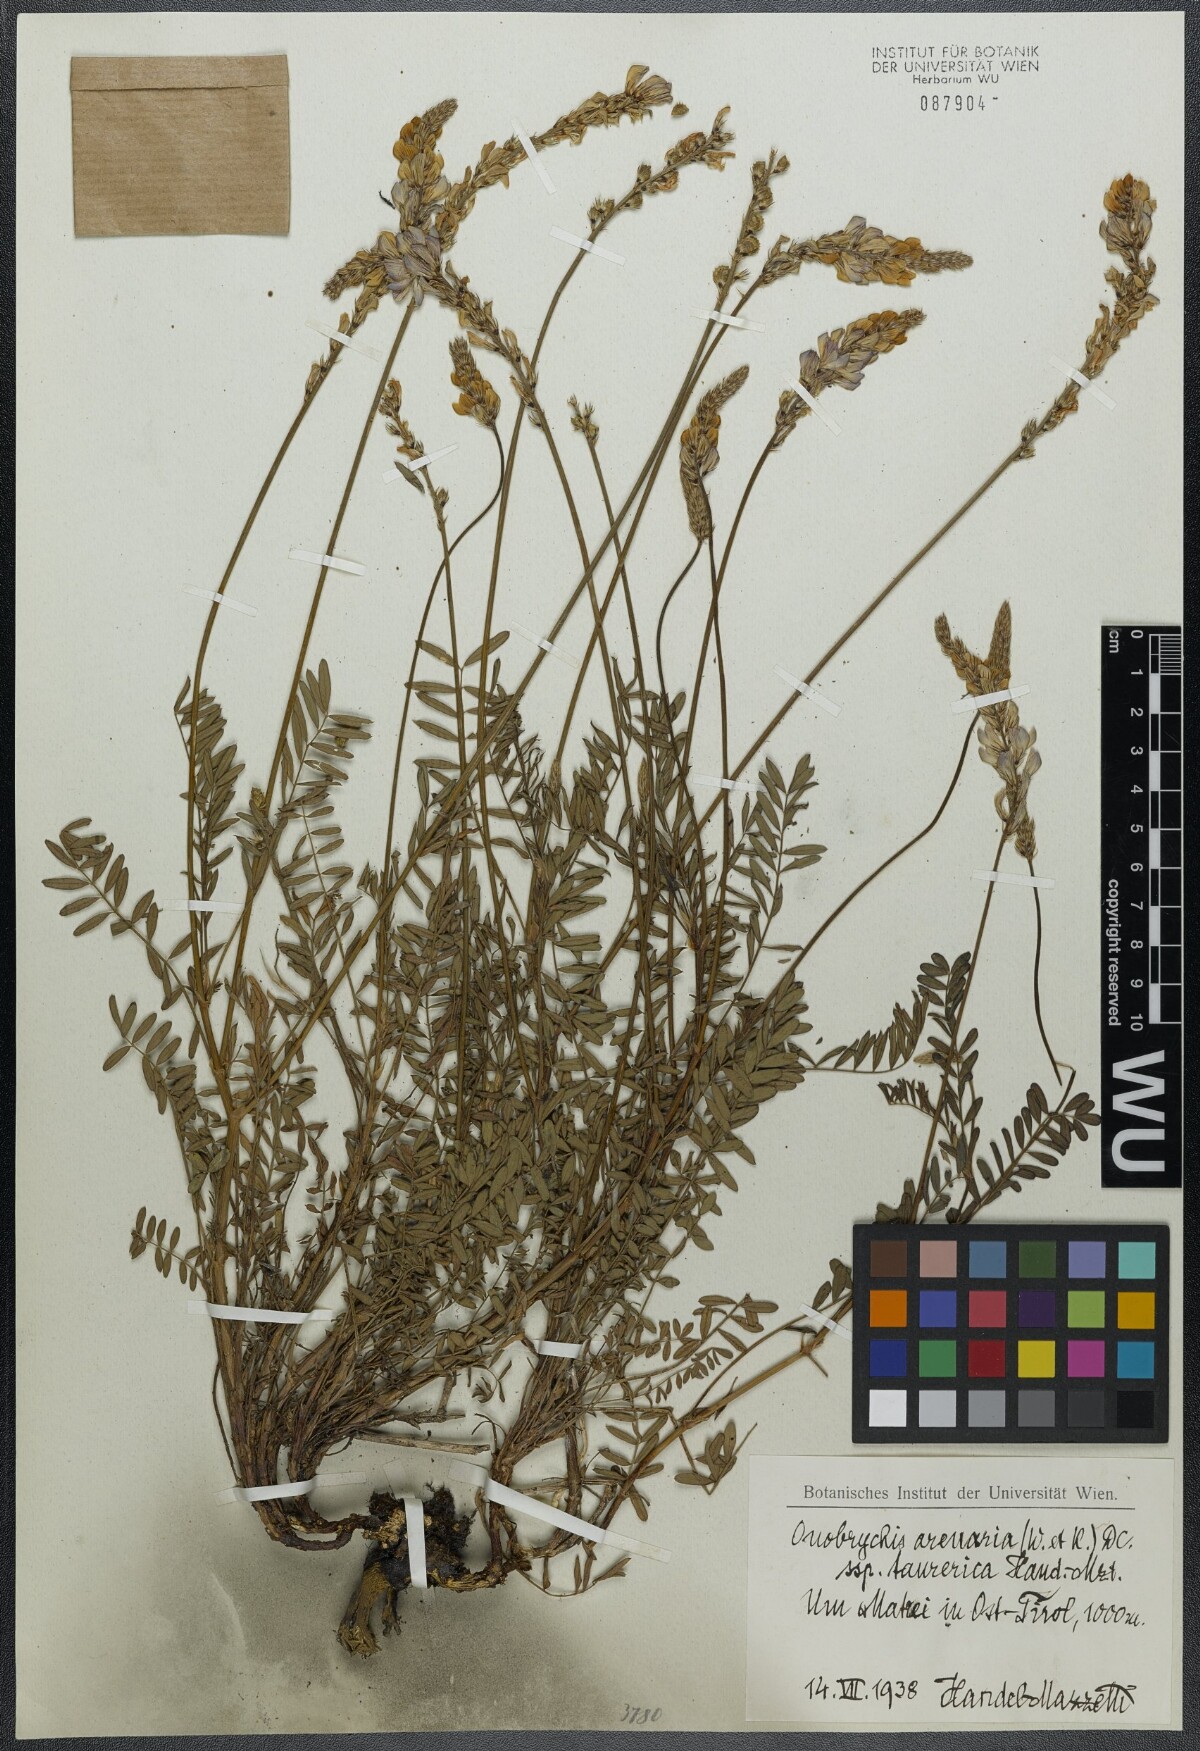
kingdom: Plantae
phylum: Tracheophyta
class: Magnoliopsida
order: Fabales
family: Fabaceae
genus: Onobrychis
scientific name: Onobrychis arenaria
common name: Sand esparcet
